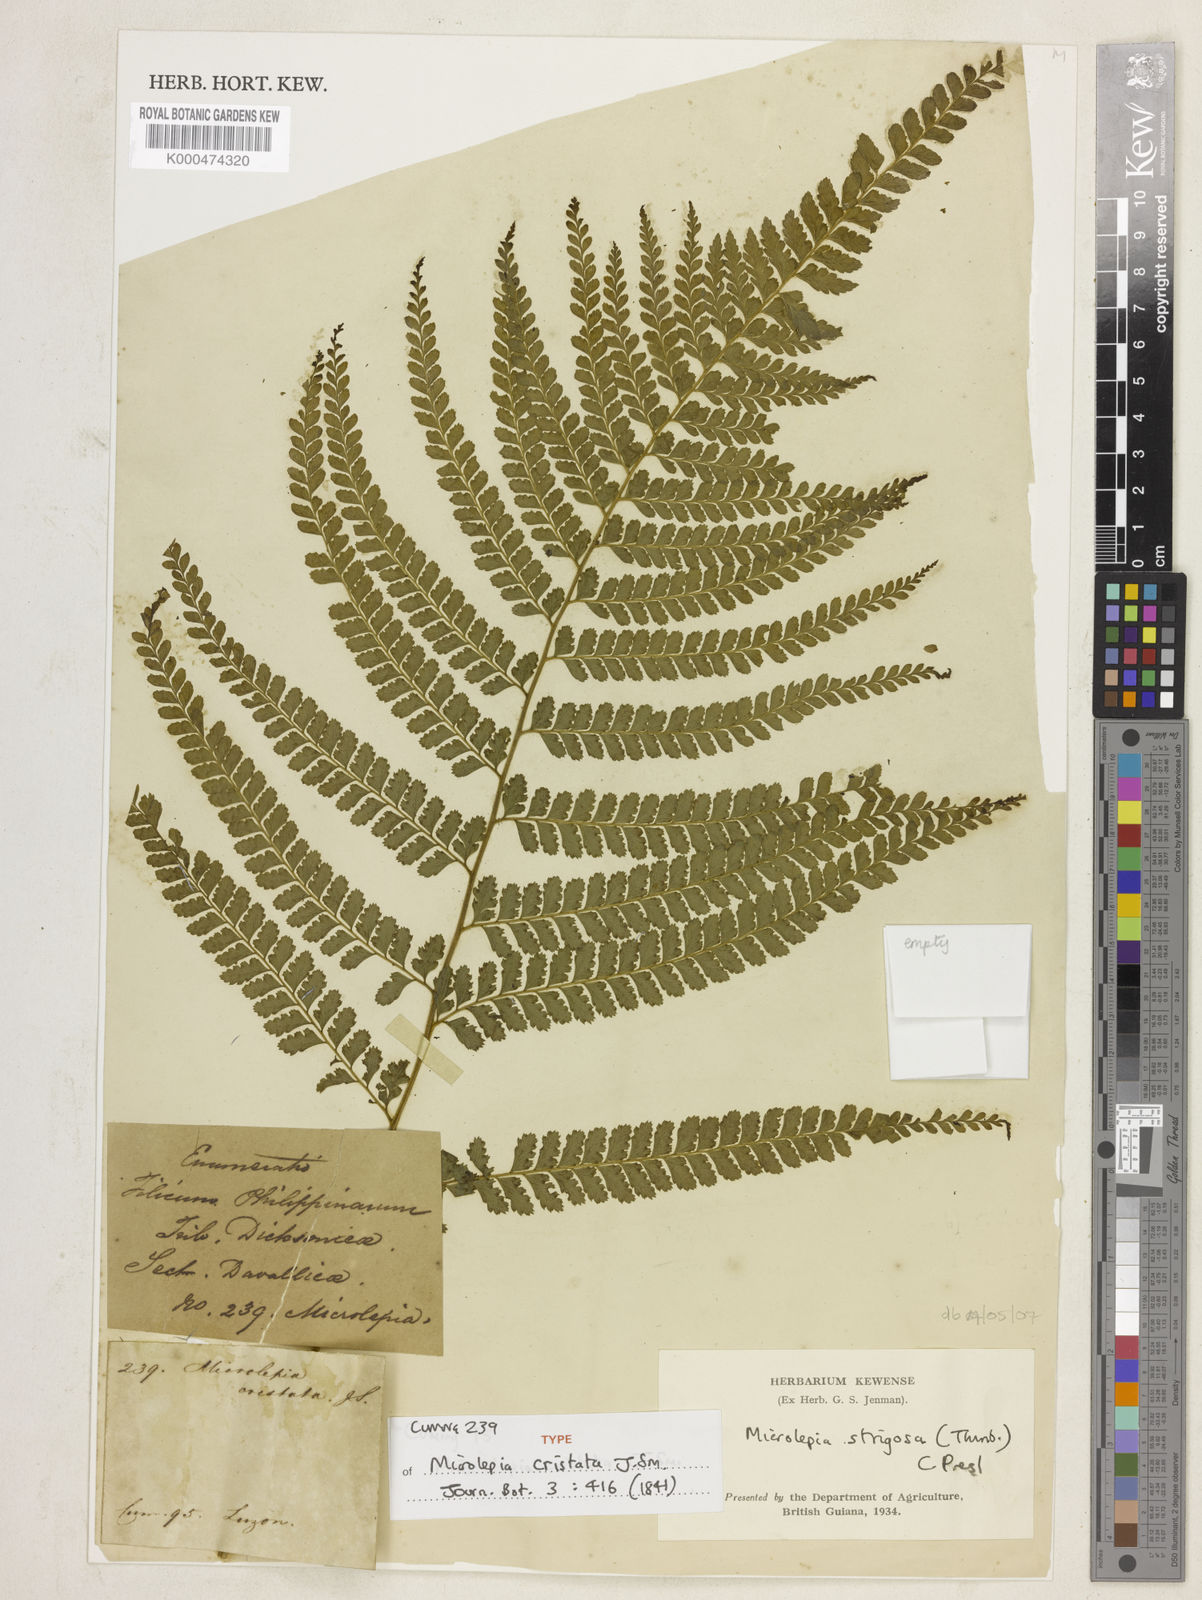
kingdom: Plantae
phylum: Tracheophyta
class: Polypodiopsida
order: Polypodiales
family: Dennstaedtiaceae
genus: Microlepia
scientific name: Microlepia strigosa
